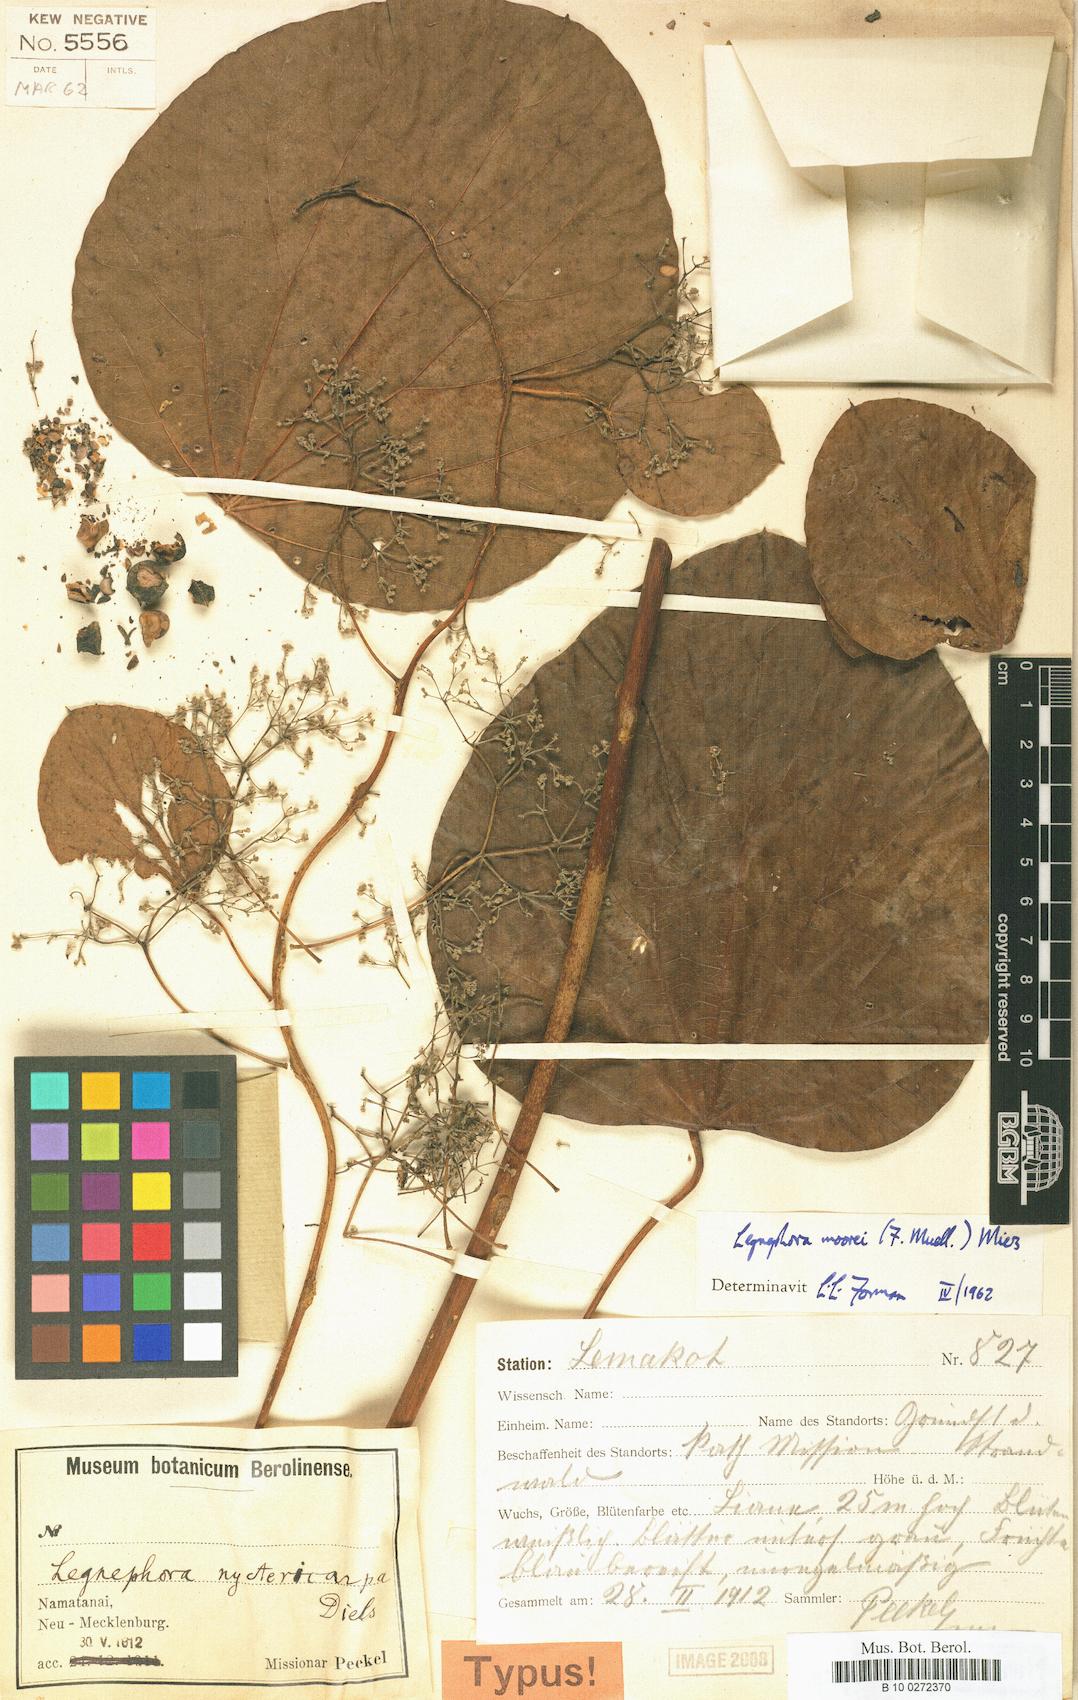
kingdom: Plantae
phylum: Tracheophyta
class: Magnoliopsida
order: Ranunculales
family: Menispermaceae
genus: Legnephora
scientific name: Legnephora moorei
